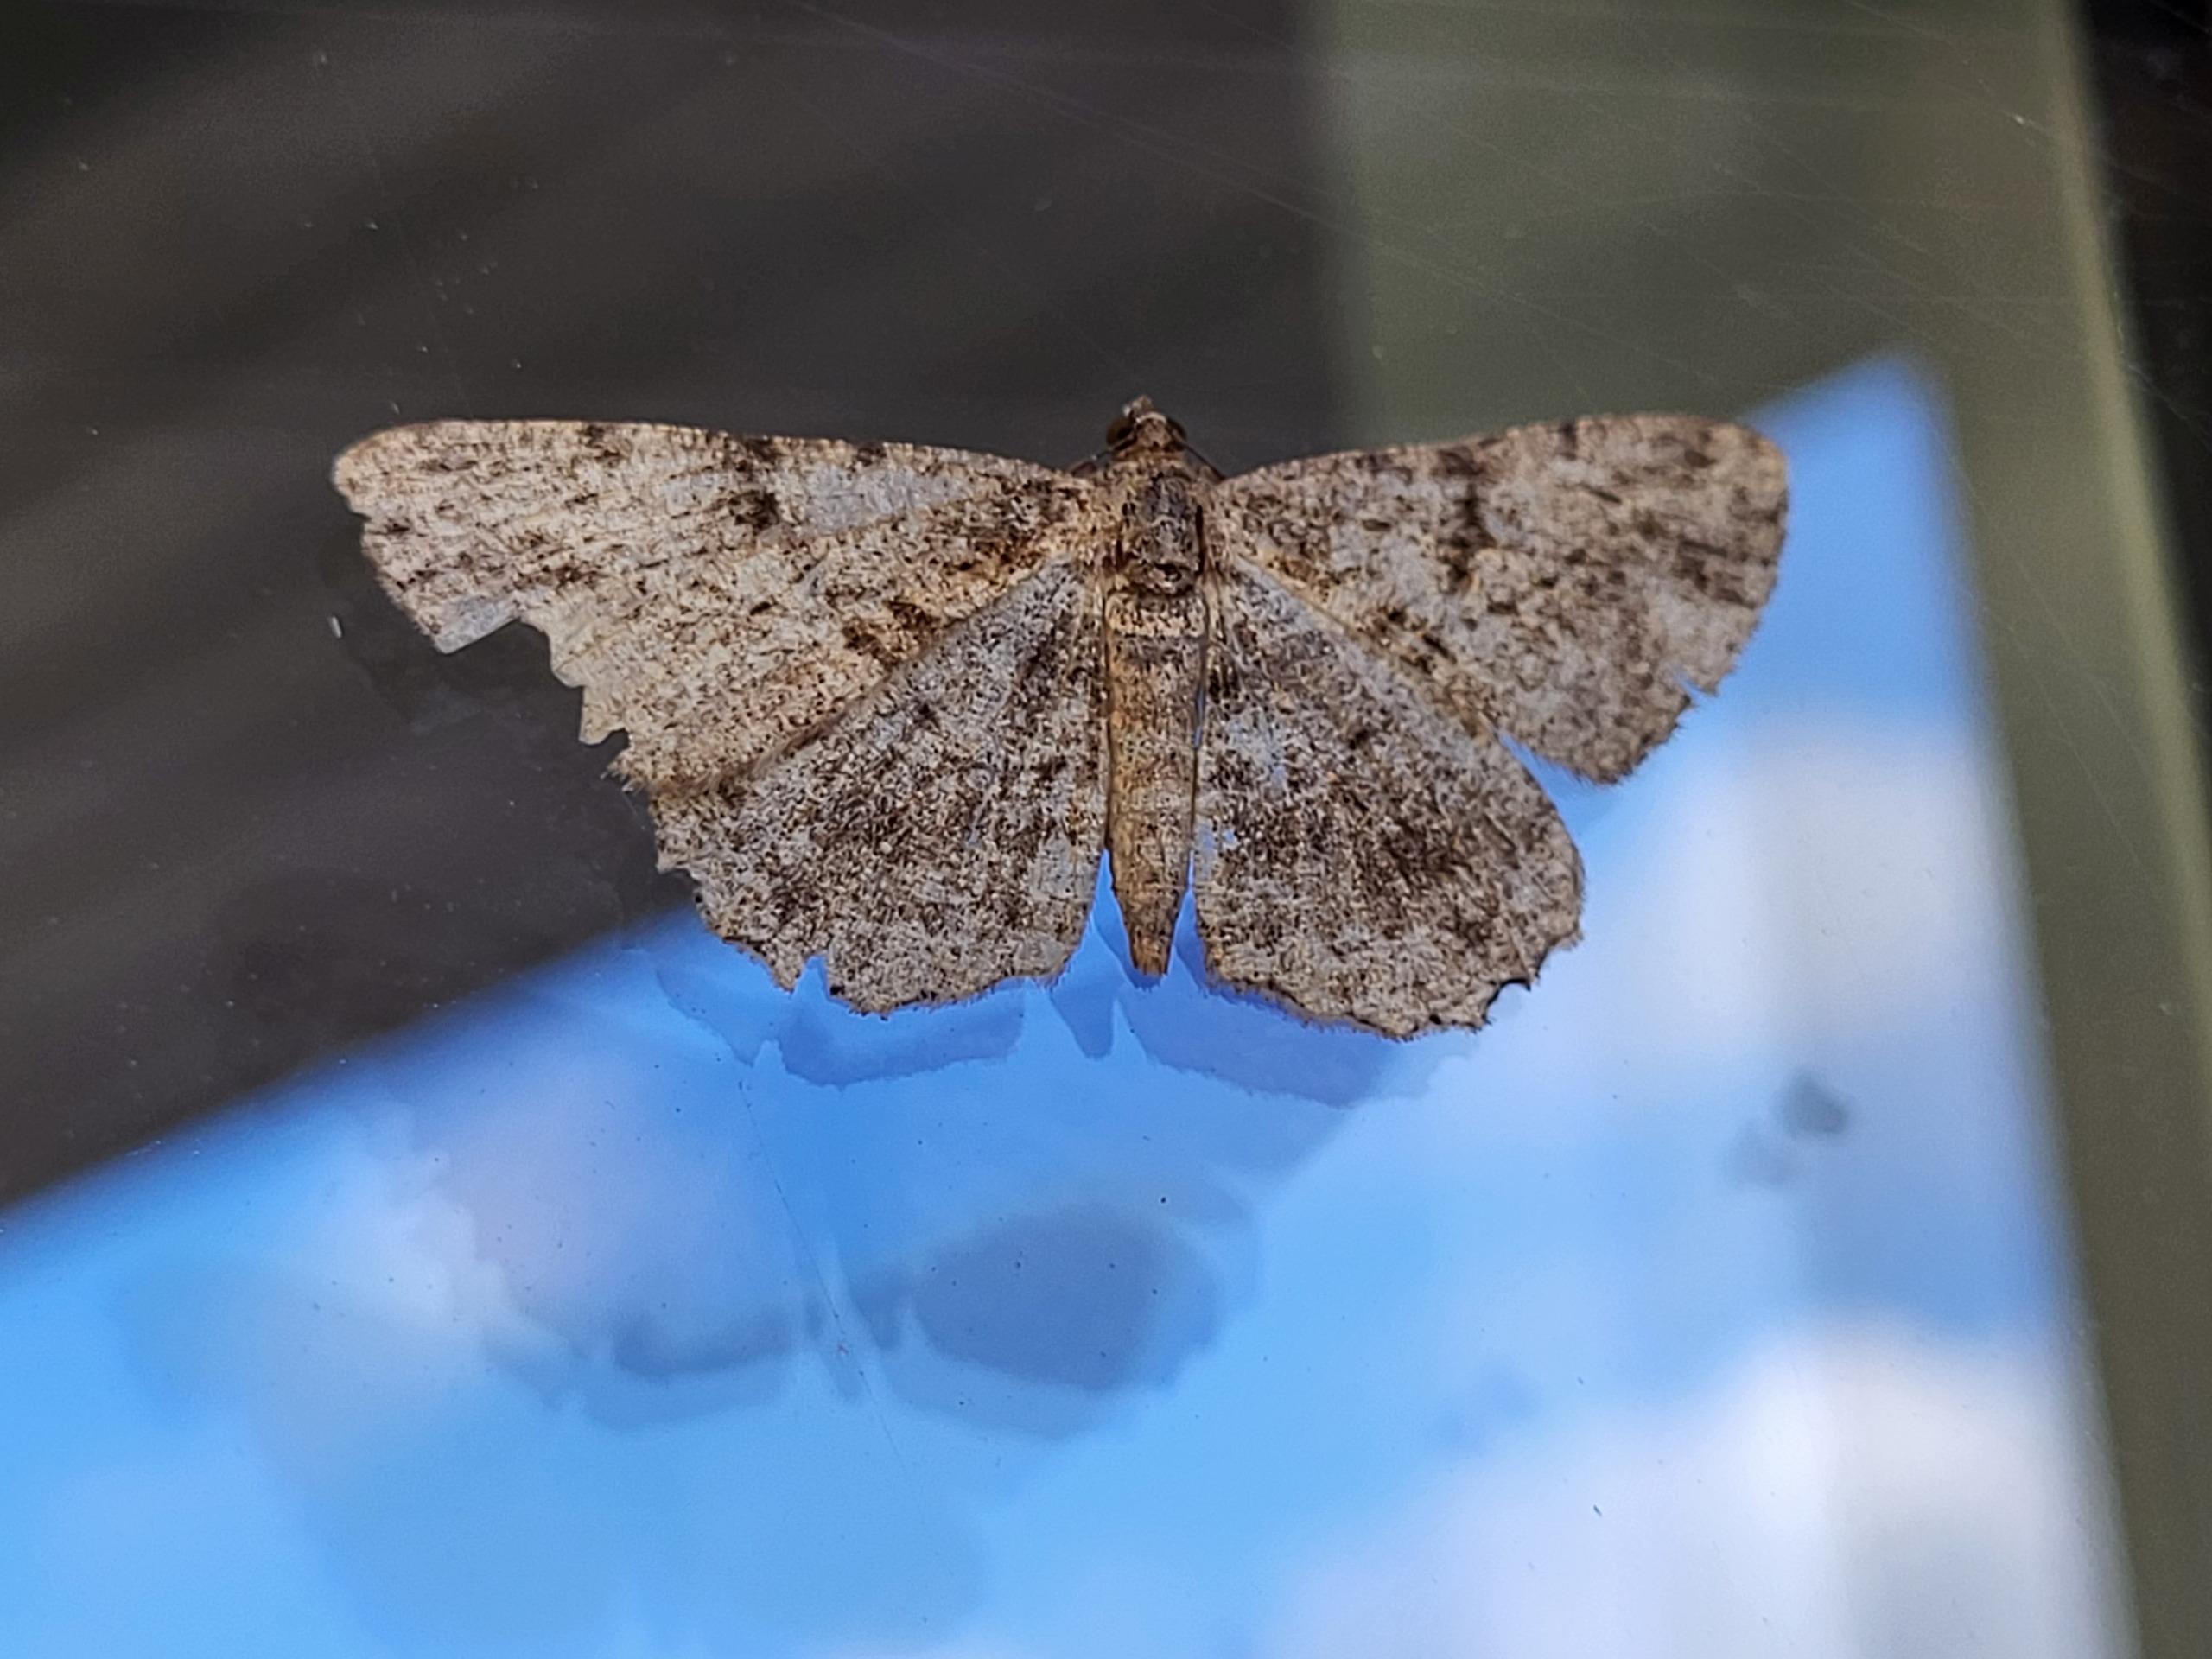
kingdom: Animalia
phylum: Arthropoda
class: Insecta
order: Lepidoptera
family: Geometridae
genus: Peribatodes
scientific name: Peribatodes rhomboidaria
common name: Frugttræ-barkmåler
